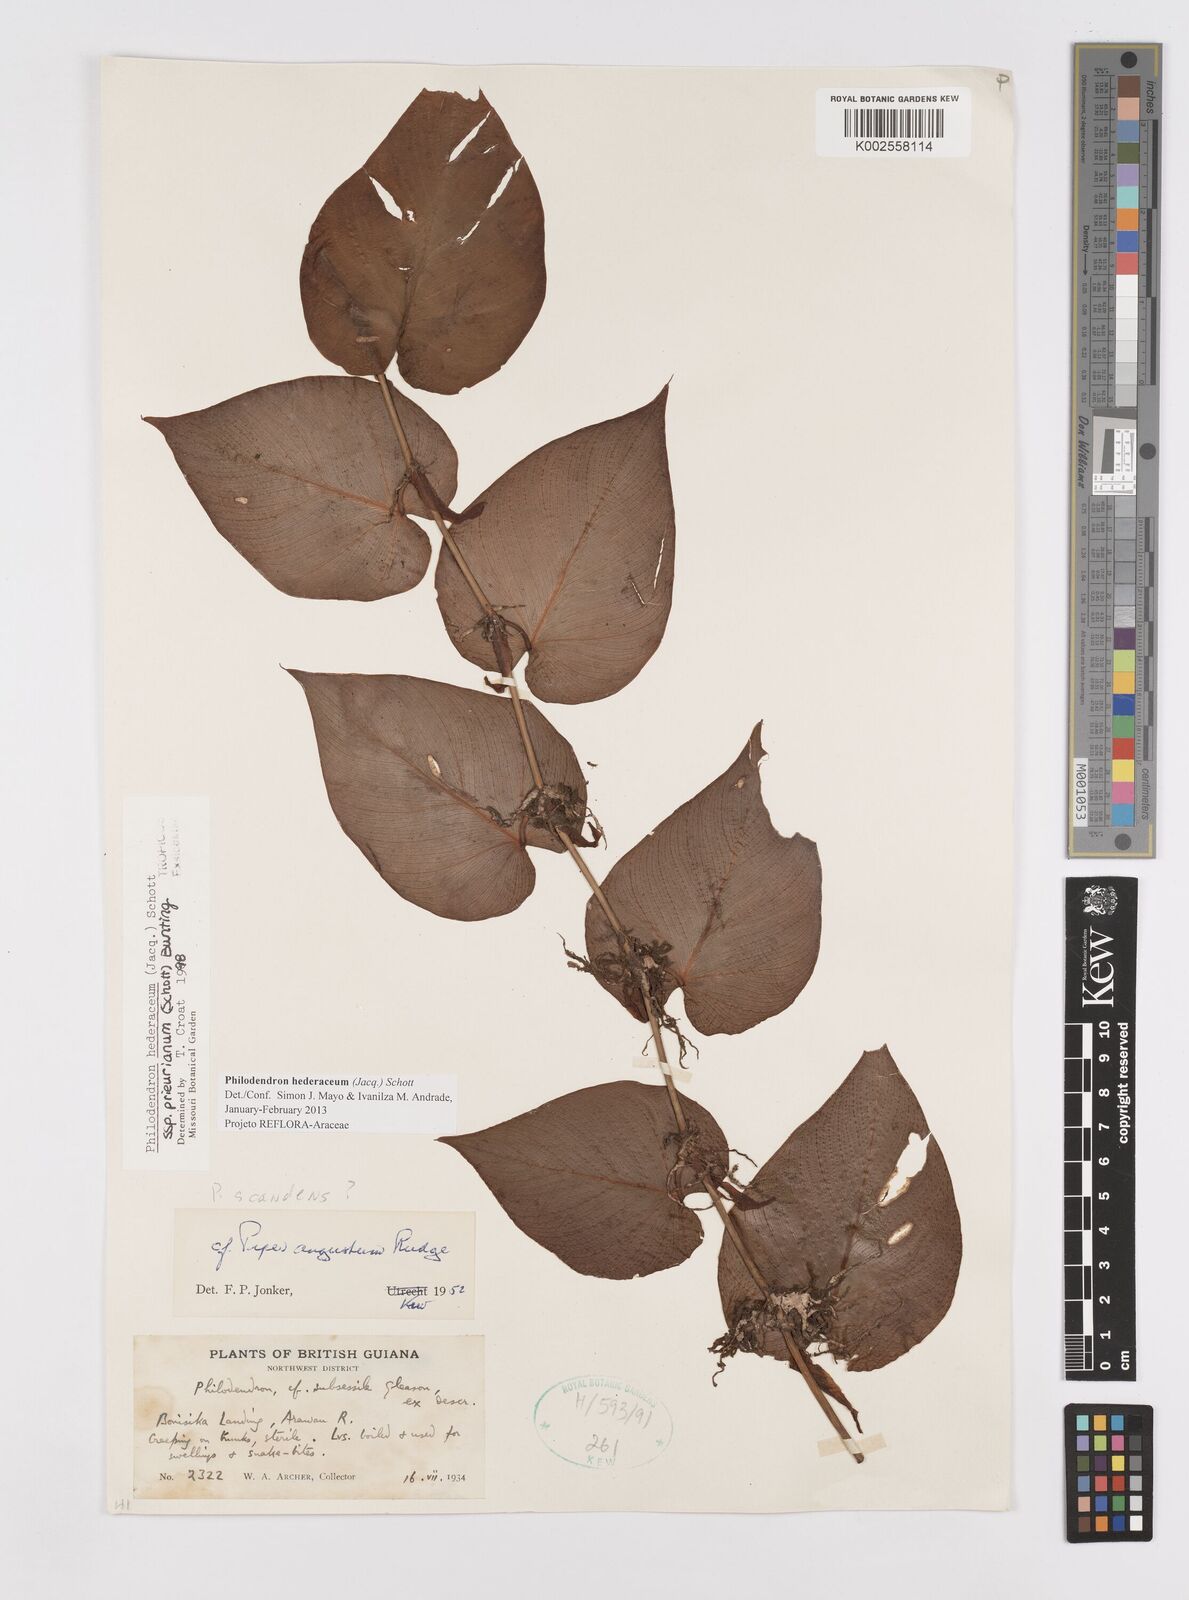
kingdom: Plantae
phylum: Tracheophyta
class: Liliopsida
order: Alismatales
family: Araceae
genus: Philodendron
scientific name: Philodendron hederaceum
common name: Vilevine
